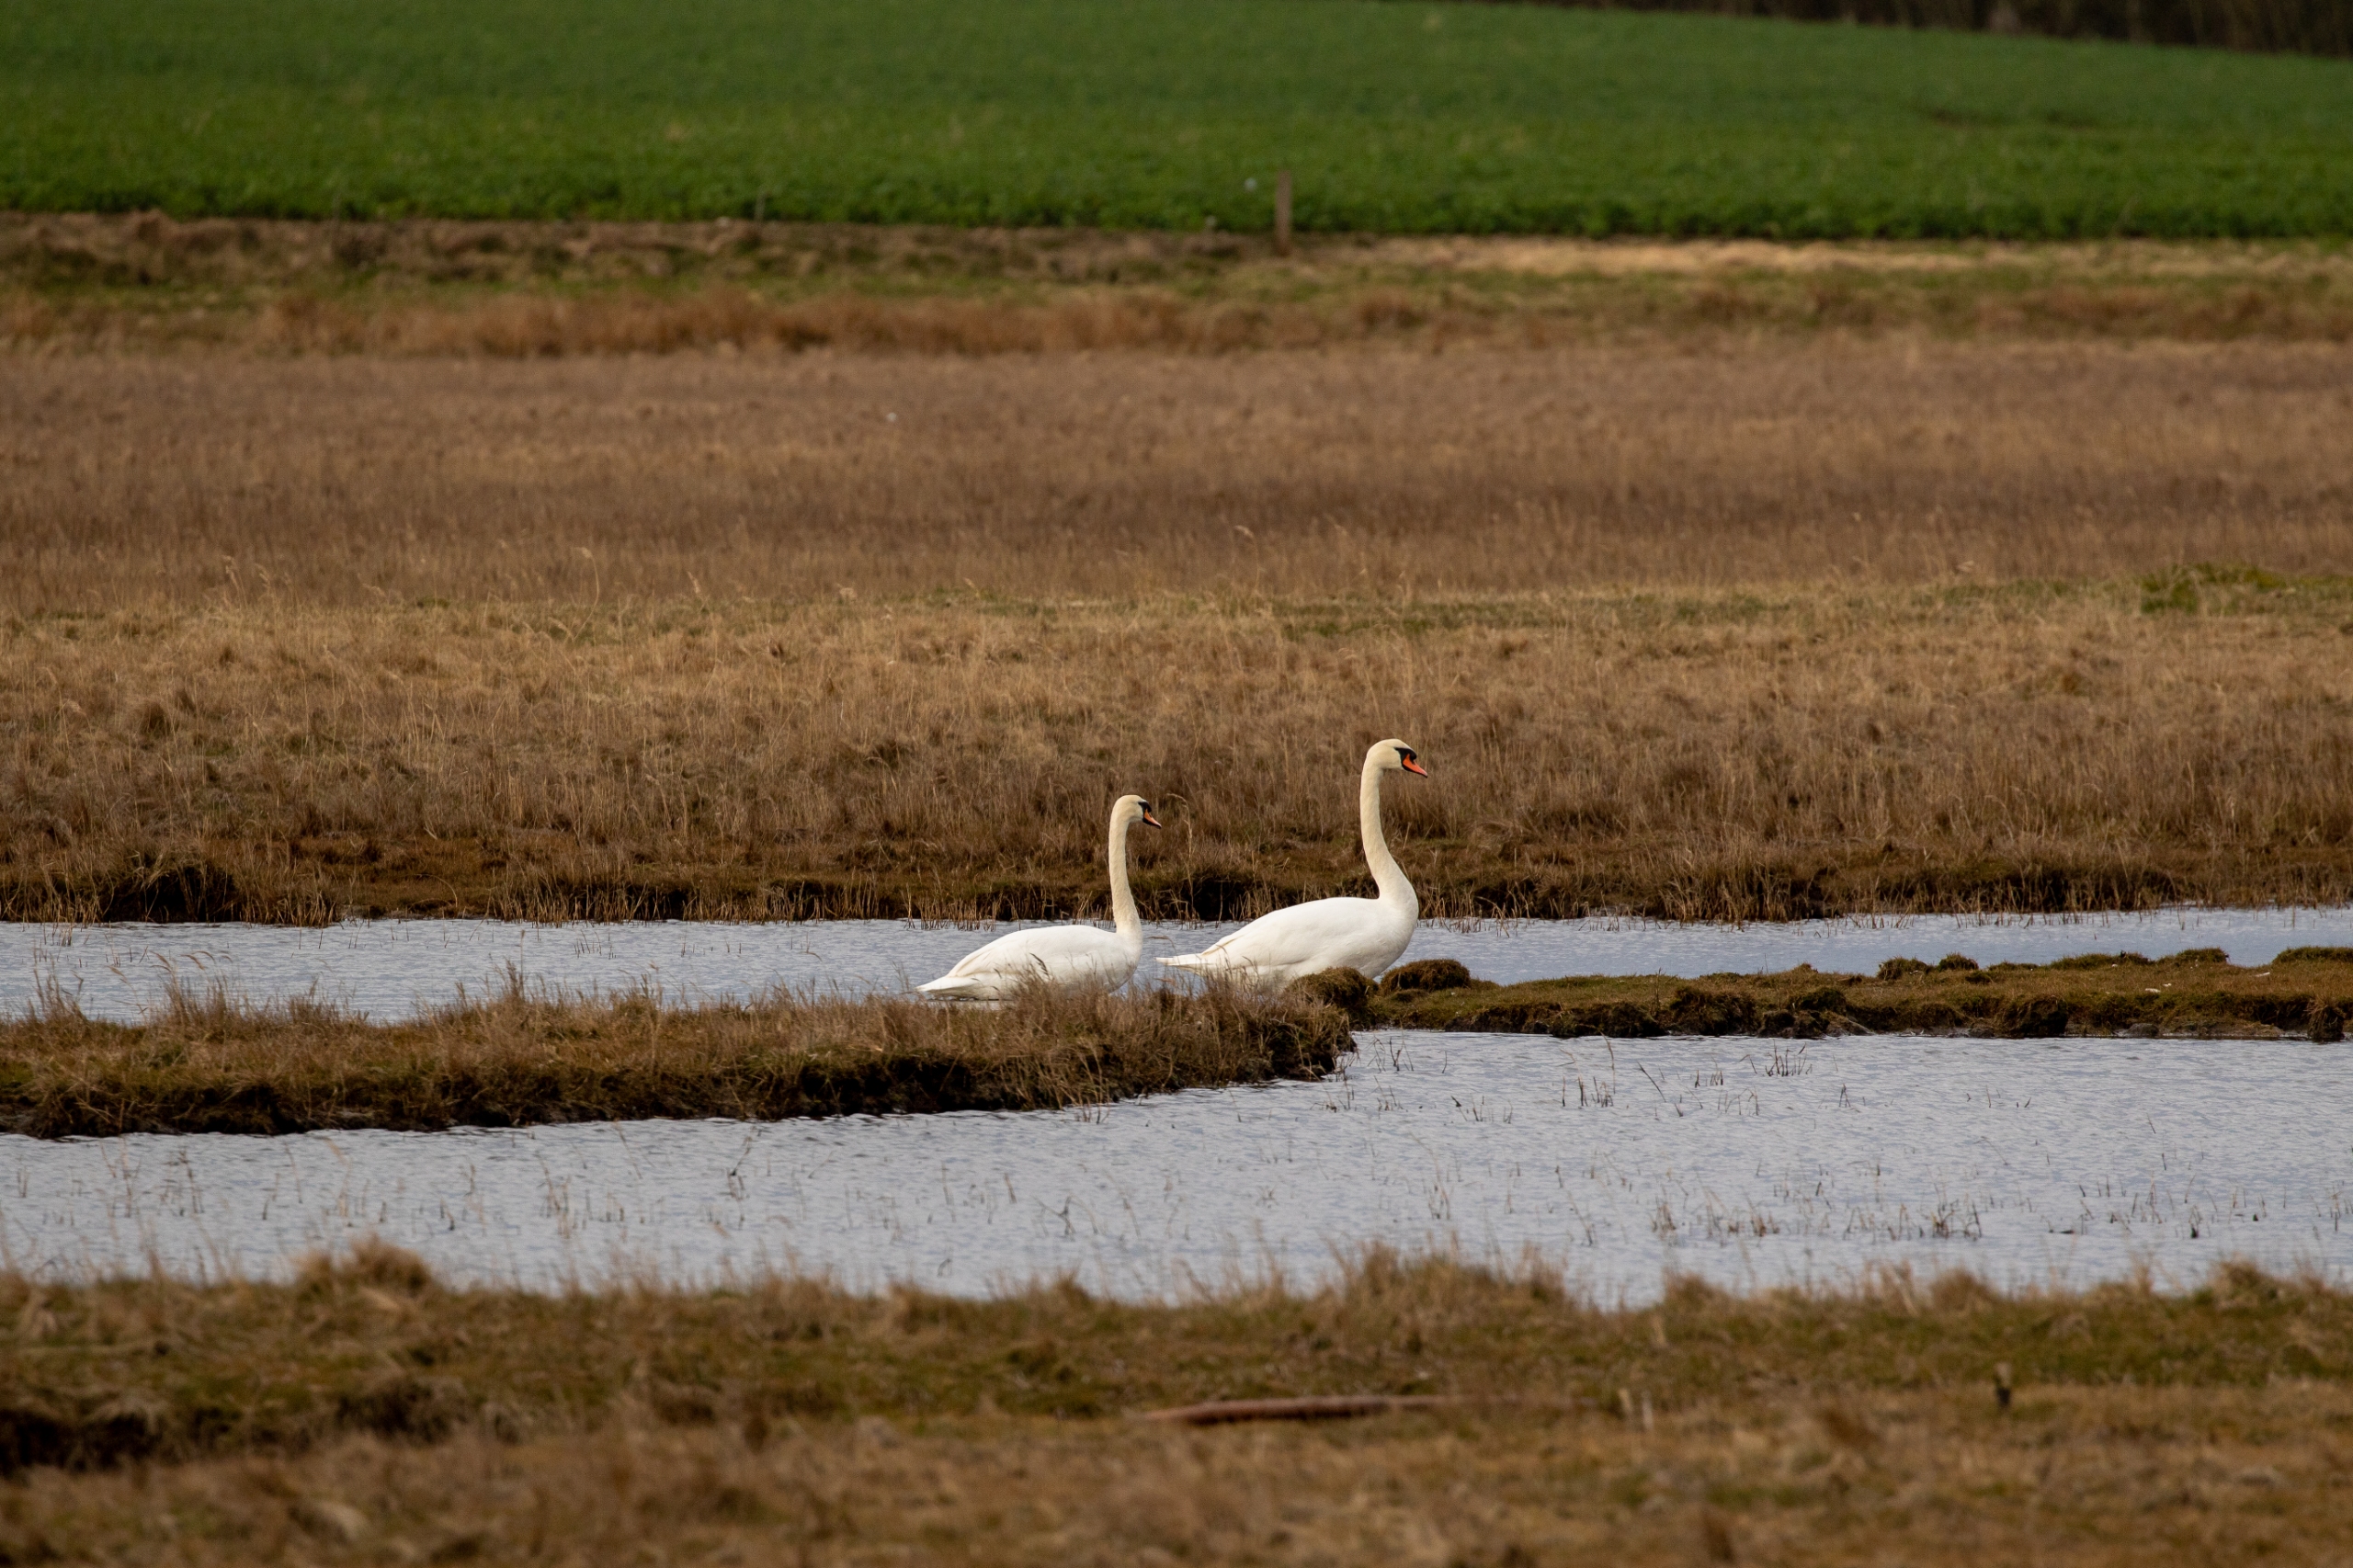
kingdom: Animalia
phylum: Chordata
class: Aves
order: Anseriformes
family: Anatidae
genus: Cygnus
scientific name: Cygnus olor
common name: Knopsvane
